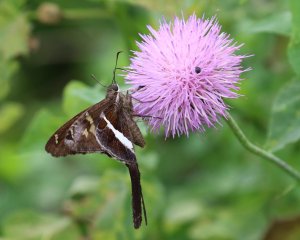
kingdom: Animalia
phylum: Arthropoda
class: Insecta
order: Lepidoptera
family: Hesperiidae
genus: Chioides
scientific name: Chioides catillus
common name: White-striped Longtail
